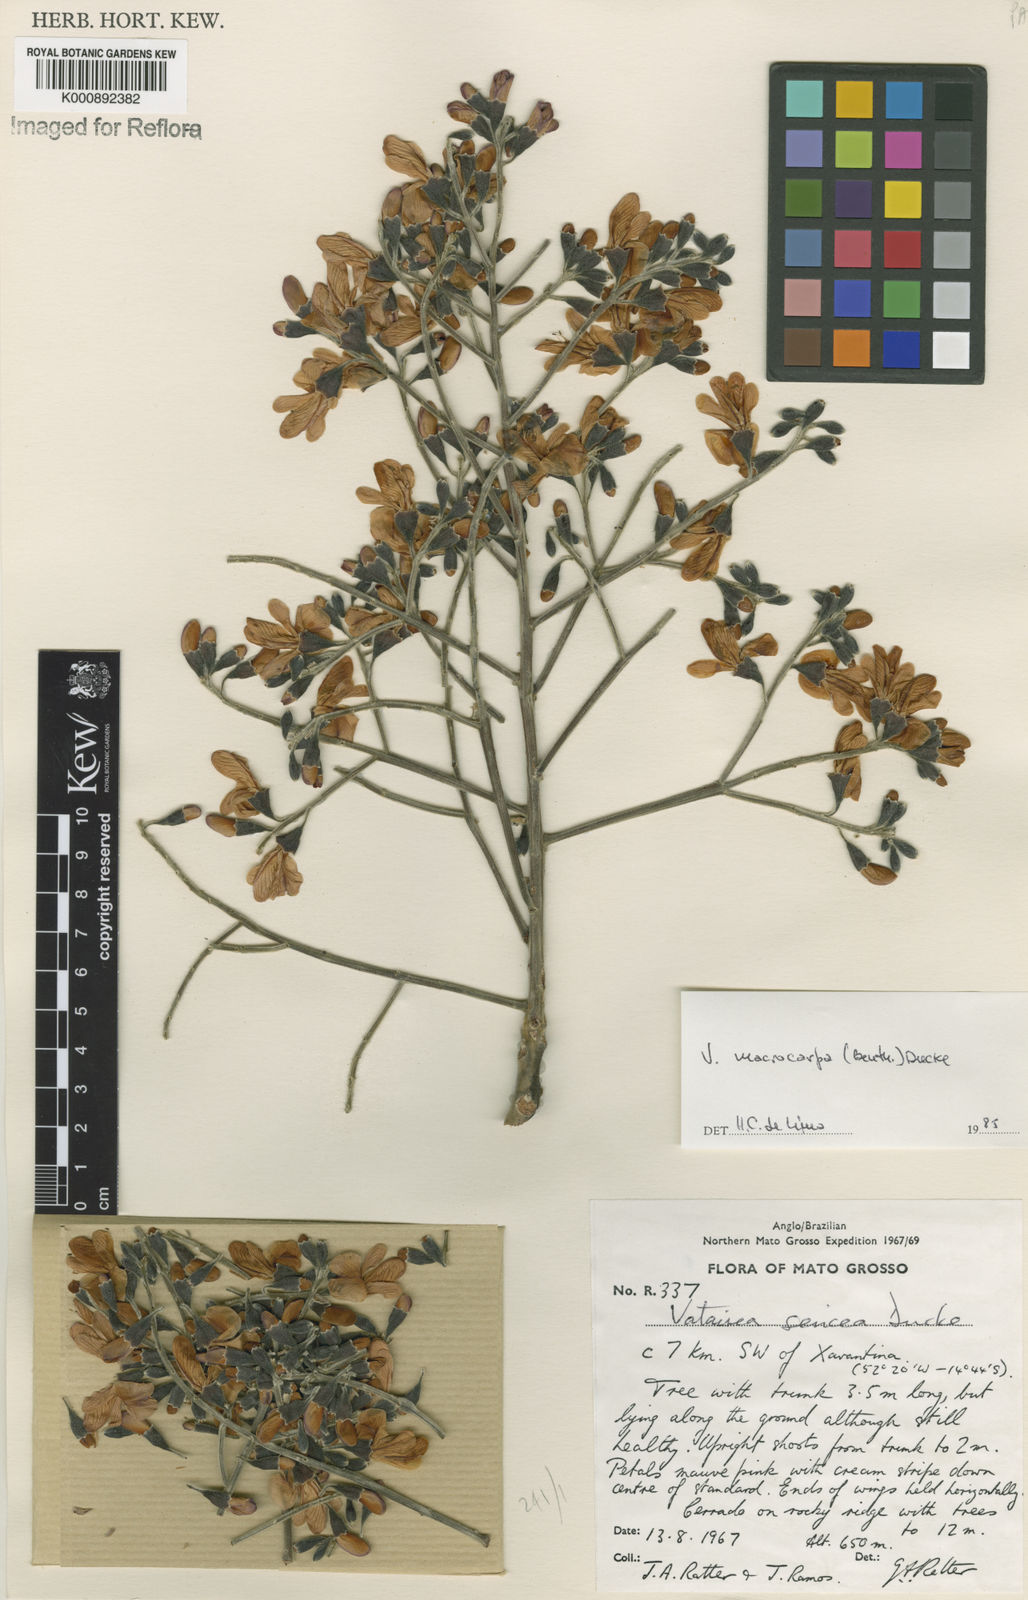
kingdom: Plantae
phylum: Tracheophyta
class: Magnoliopsida
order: Fabales
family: Fabaceae
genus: Vatairea
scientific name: Vatairea macrocarpa
